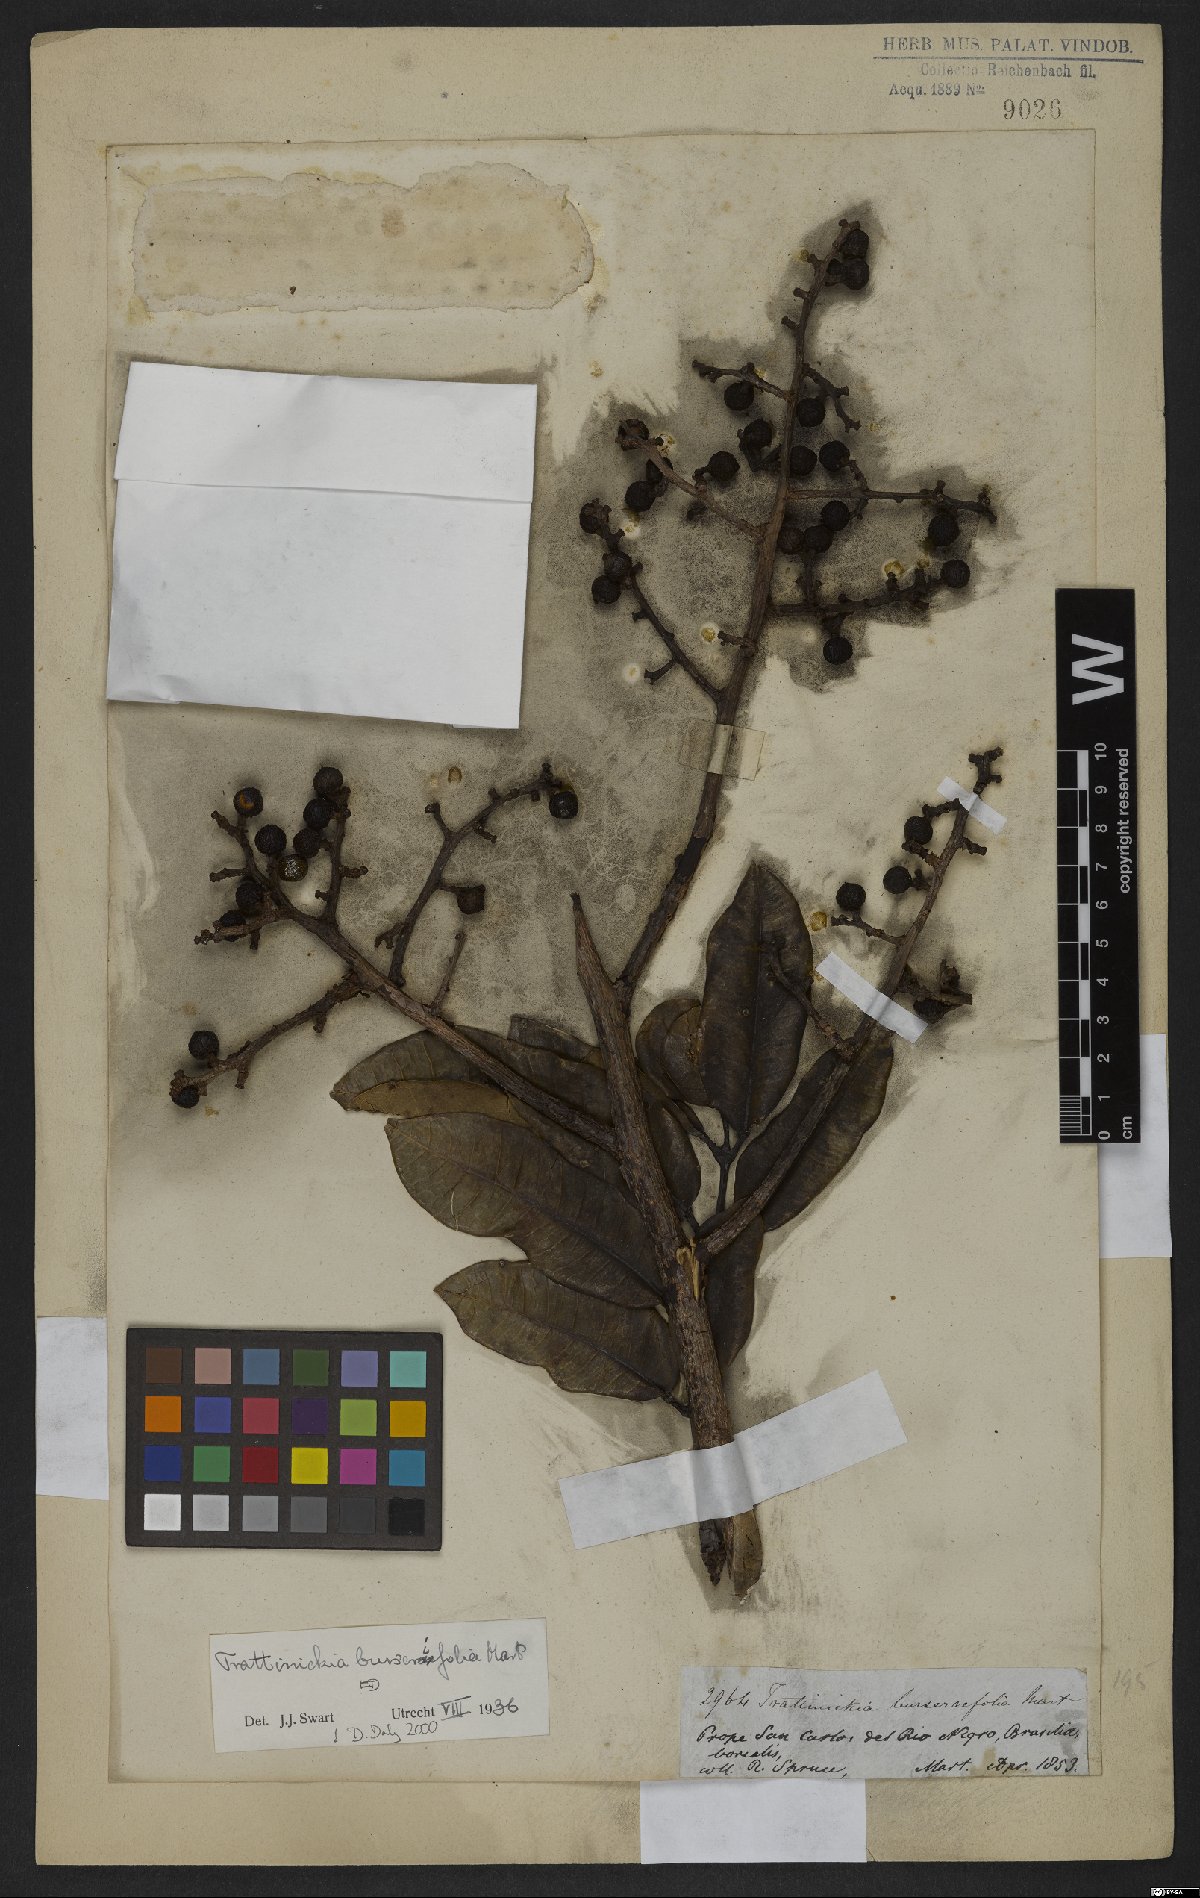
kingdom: Plantae
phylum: Tracheophyta
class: Magnoliopsida
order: Sapindales
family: Burseraceae
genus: Trattinnickia
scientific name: Trattinnickia burserifolia
